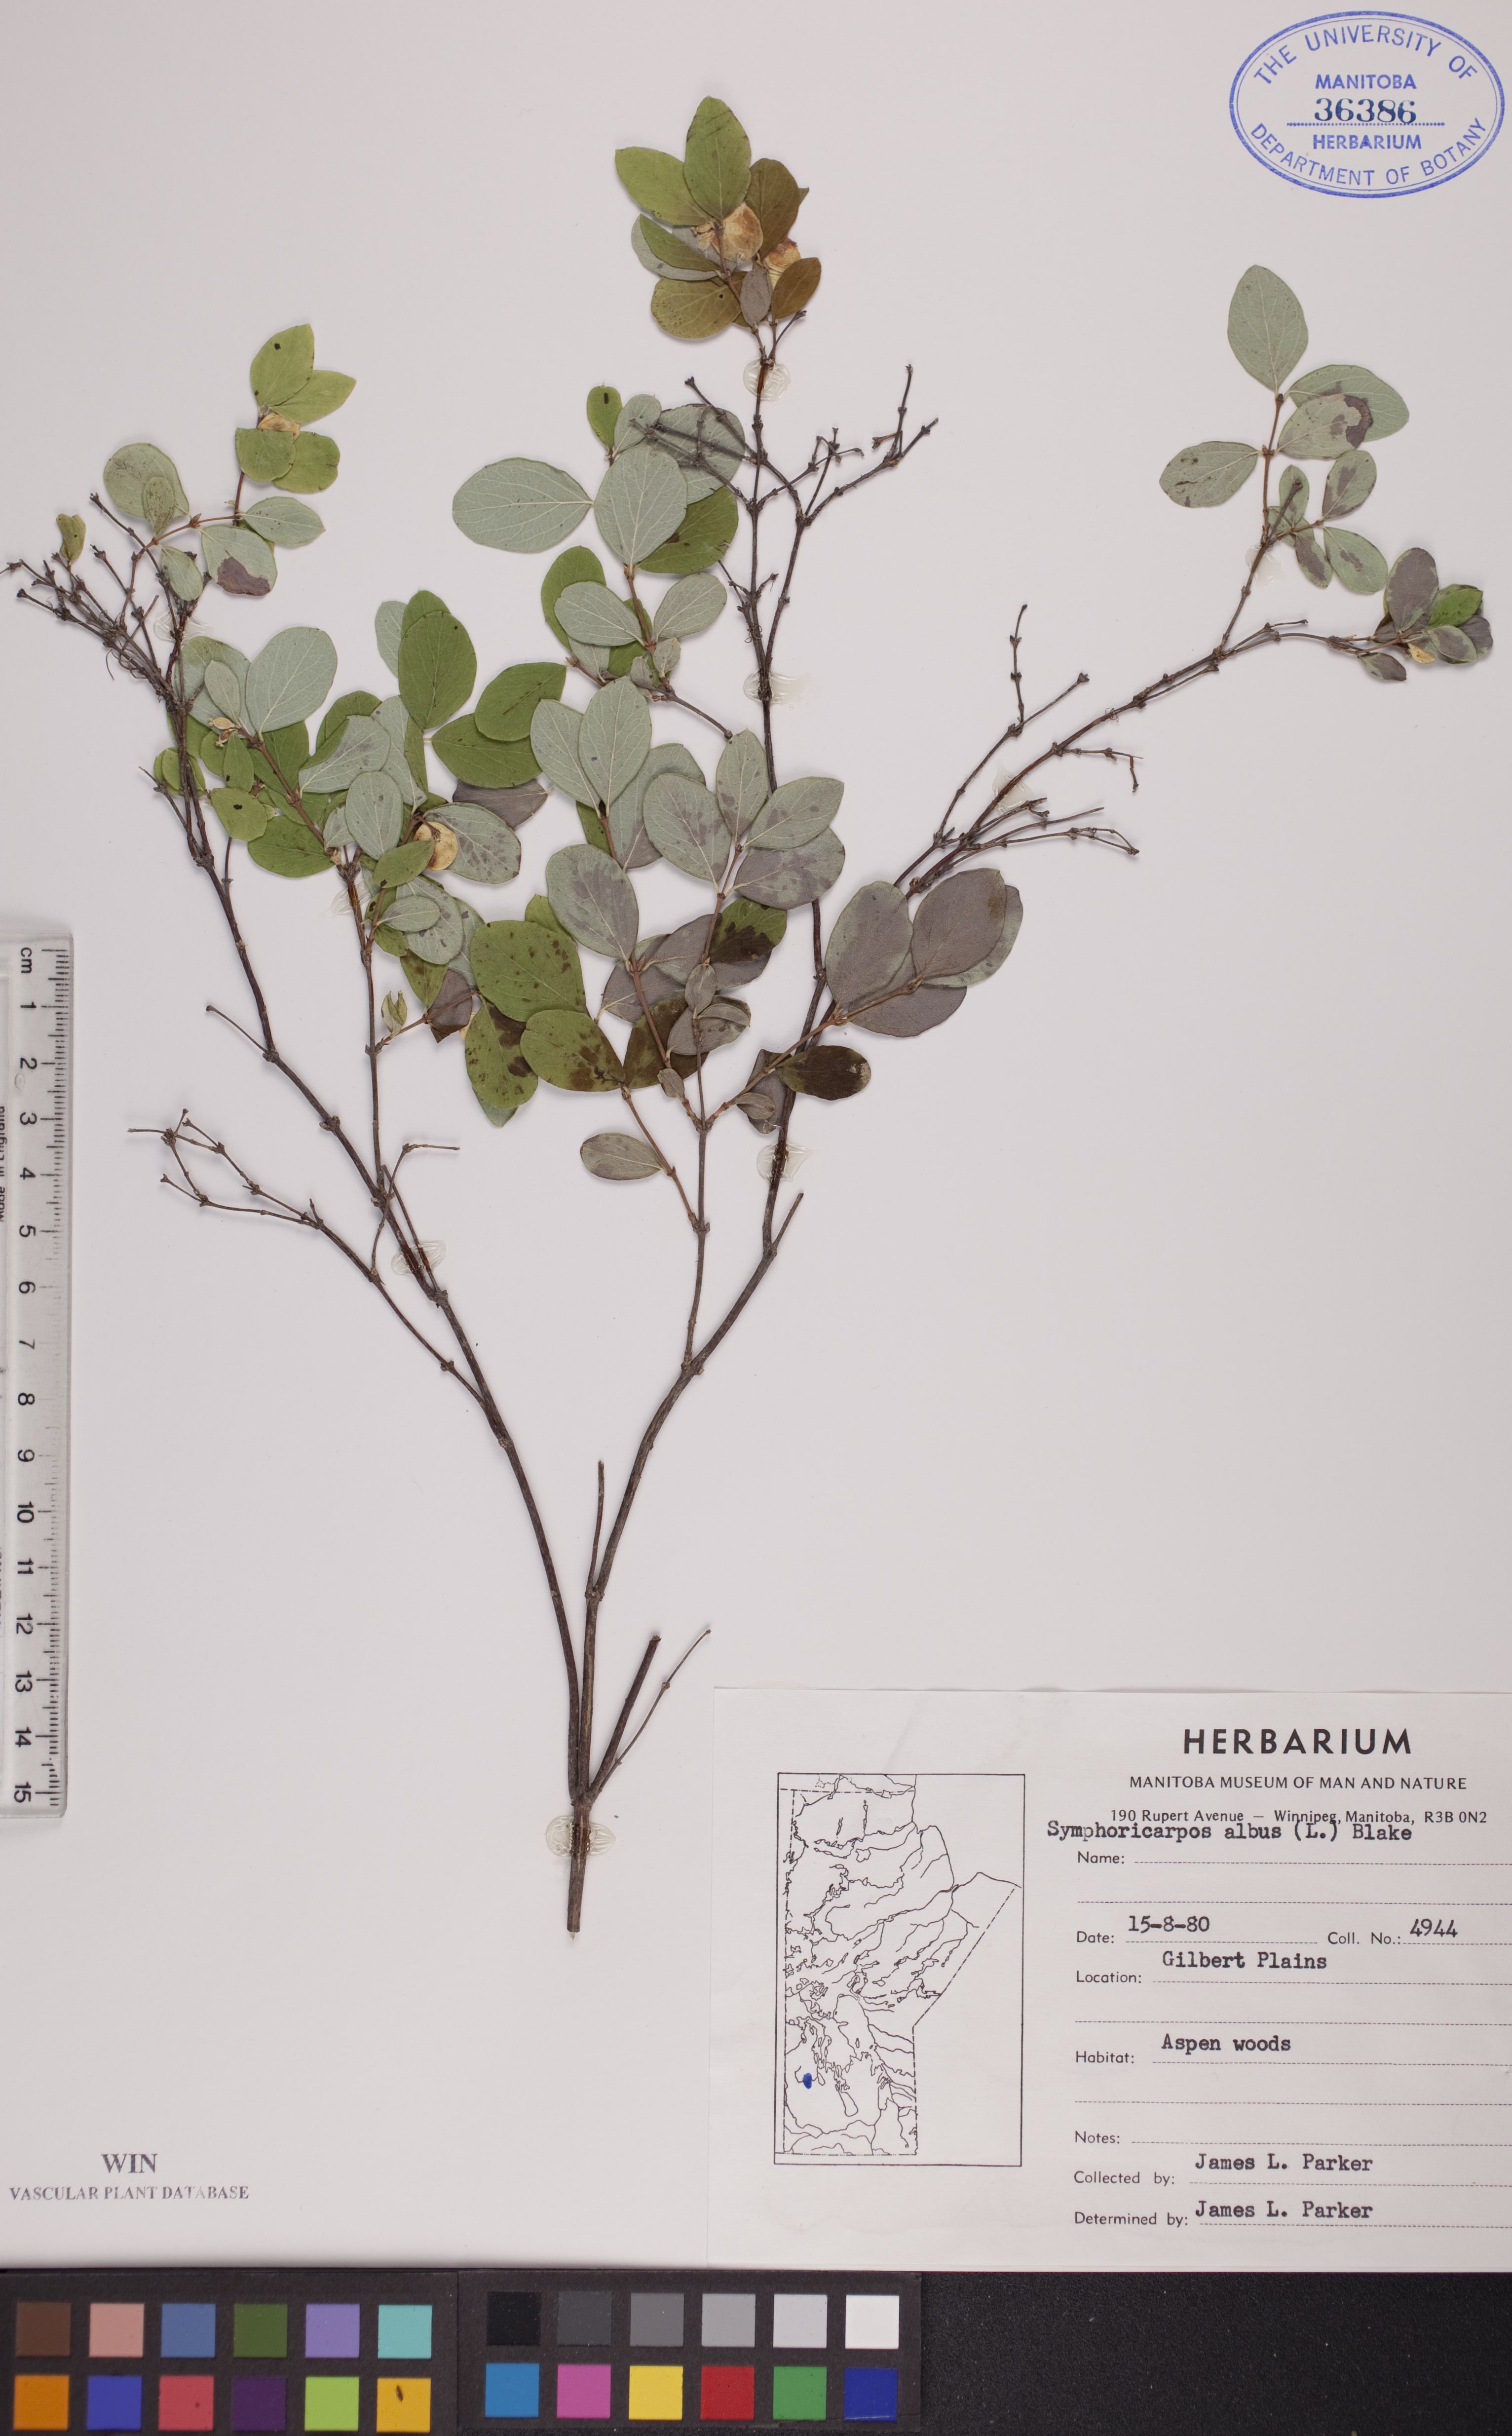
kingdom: Plantae
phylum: Tracheophyta
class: Magnoliopsida
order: Dipsacales
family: Caprifoliaceae
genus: Symphoricarpos
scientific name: Symphoricarpos albus
